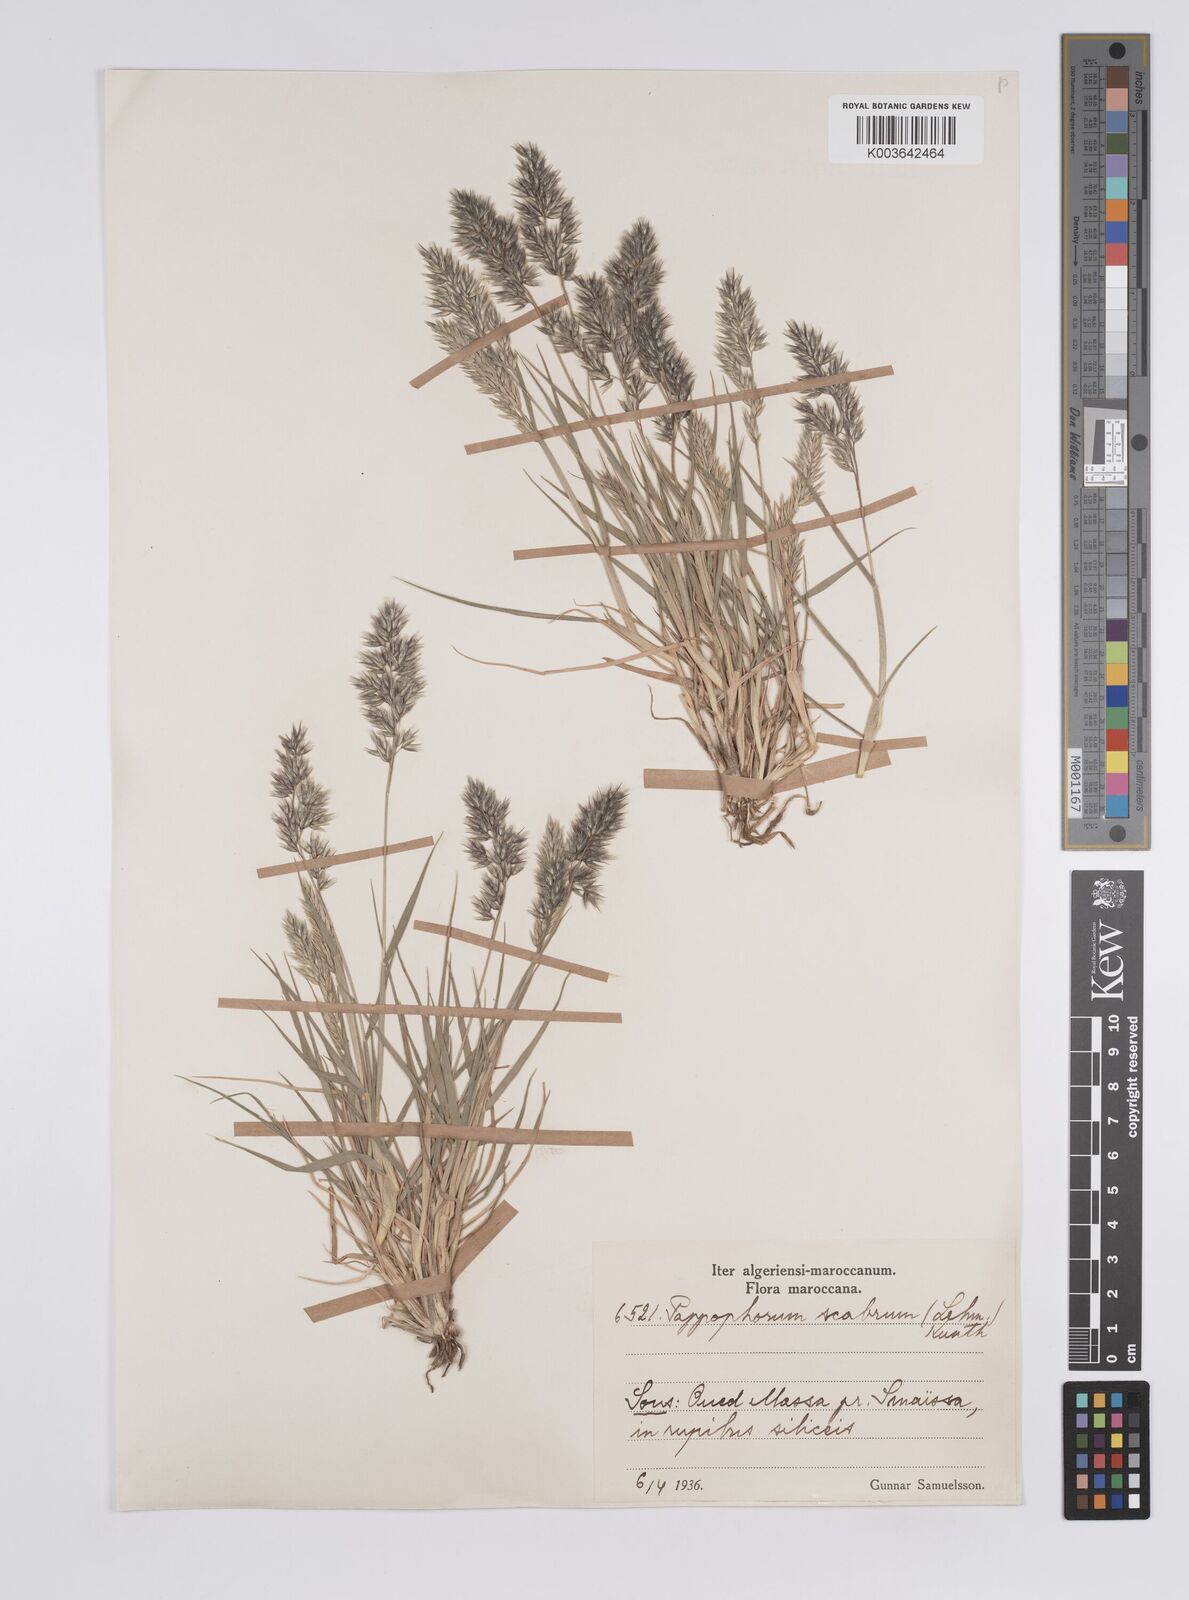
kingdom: Plantae
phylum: Tracheophyta
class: Liliopsida
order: Poales
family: Poaceae
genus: Enneapogon
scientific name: Enneapogon scaber
